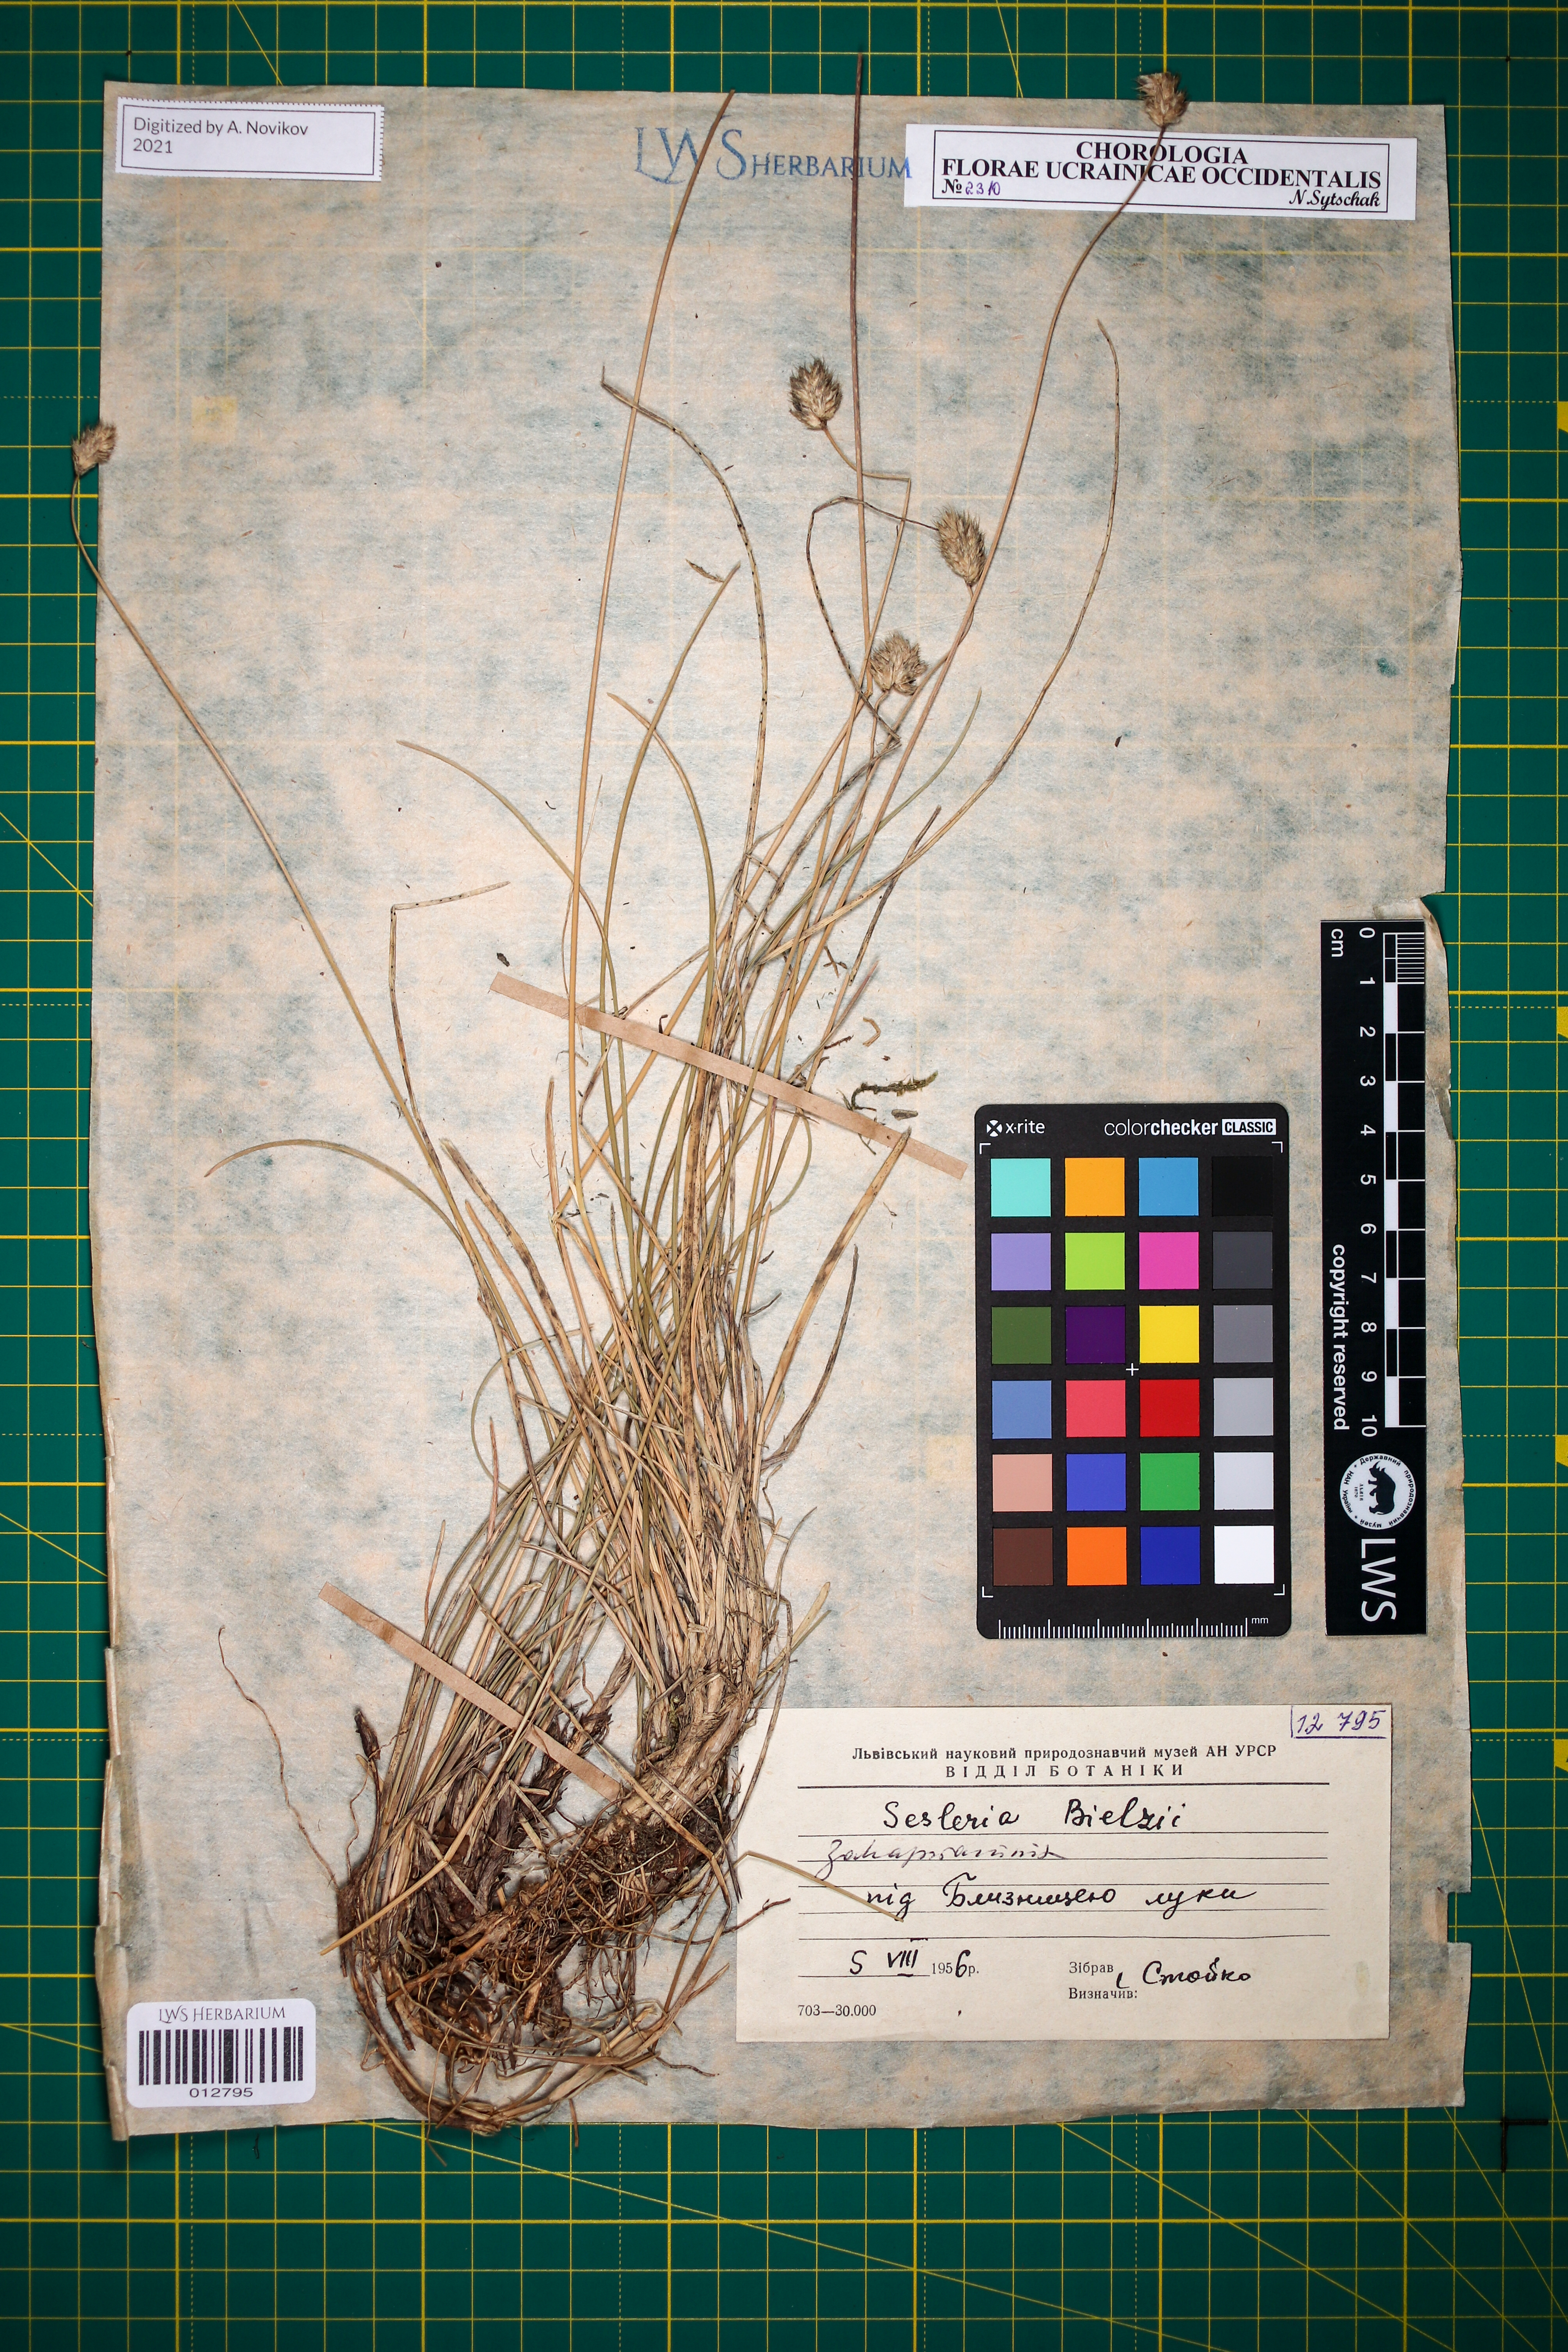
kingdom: Plantae
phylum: Tracheophyta
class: Liliopsida
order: Poales
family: Poaceae
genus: Sesleria
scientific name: Sesleria bielzii
